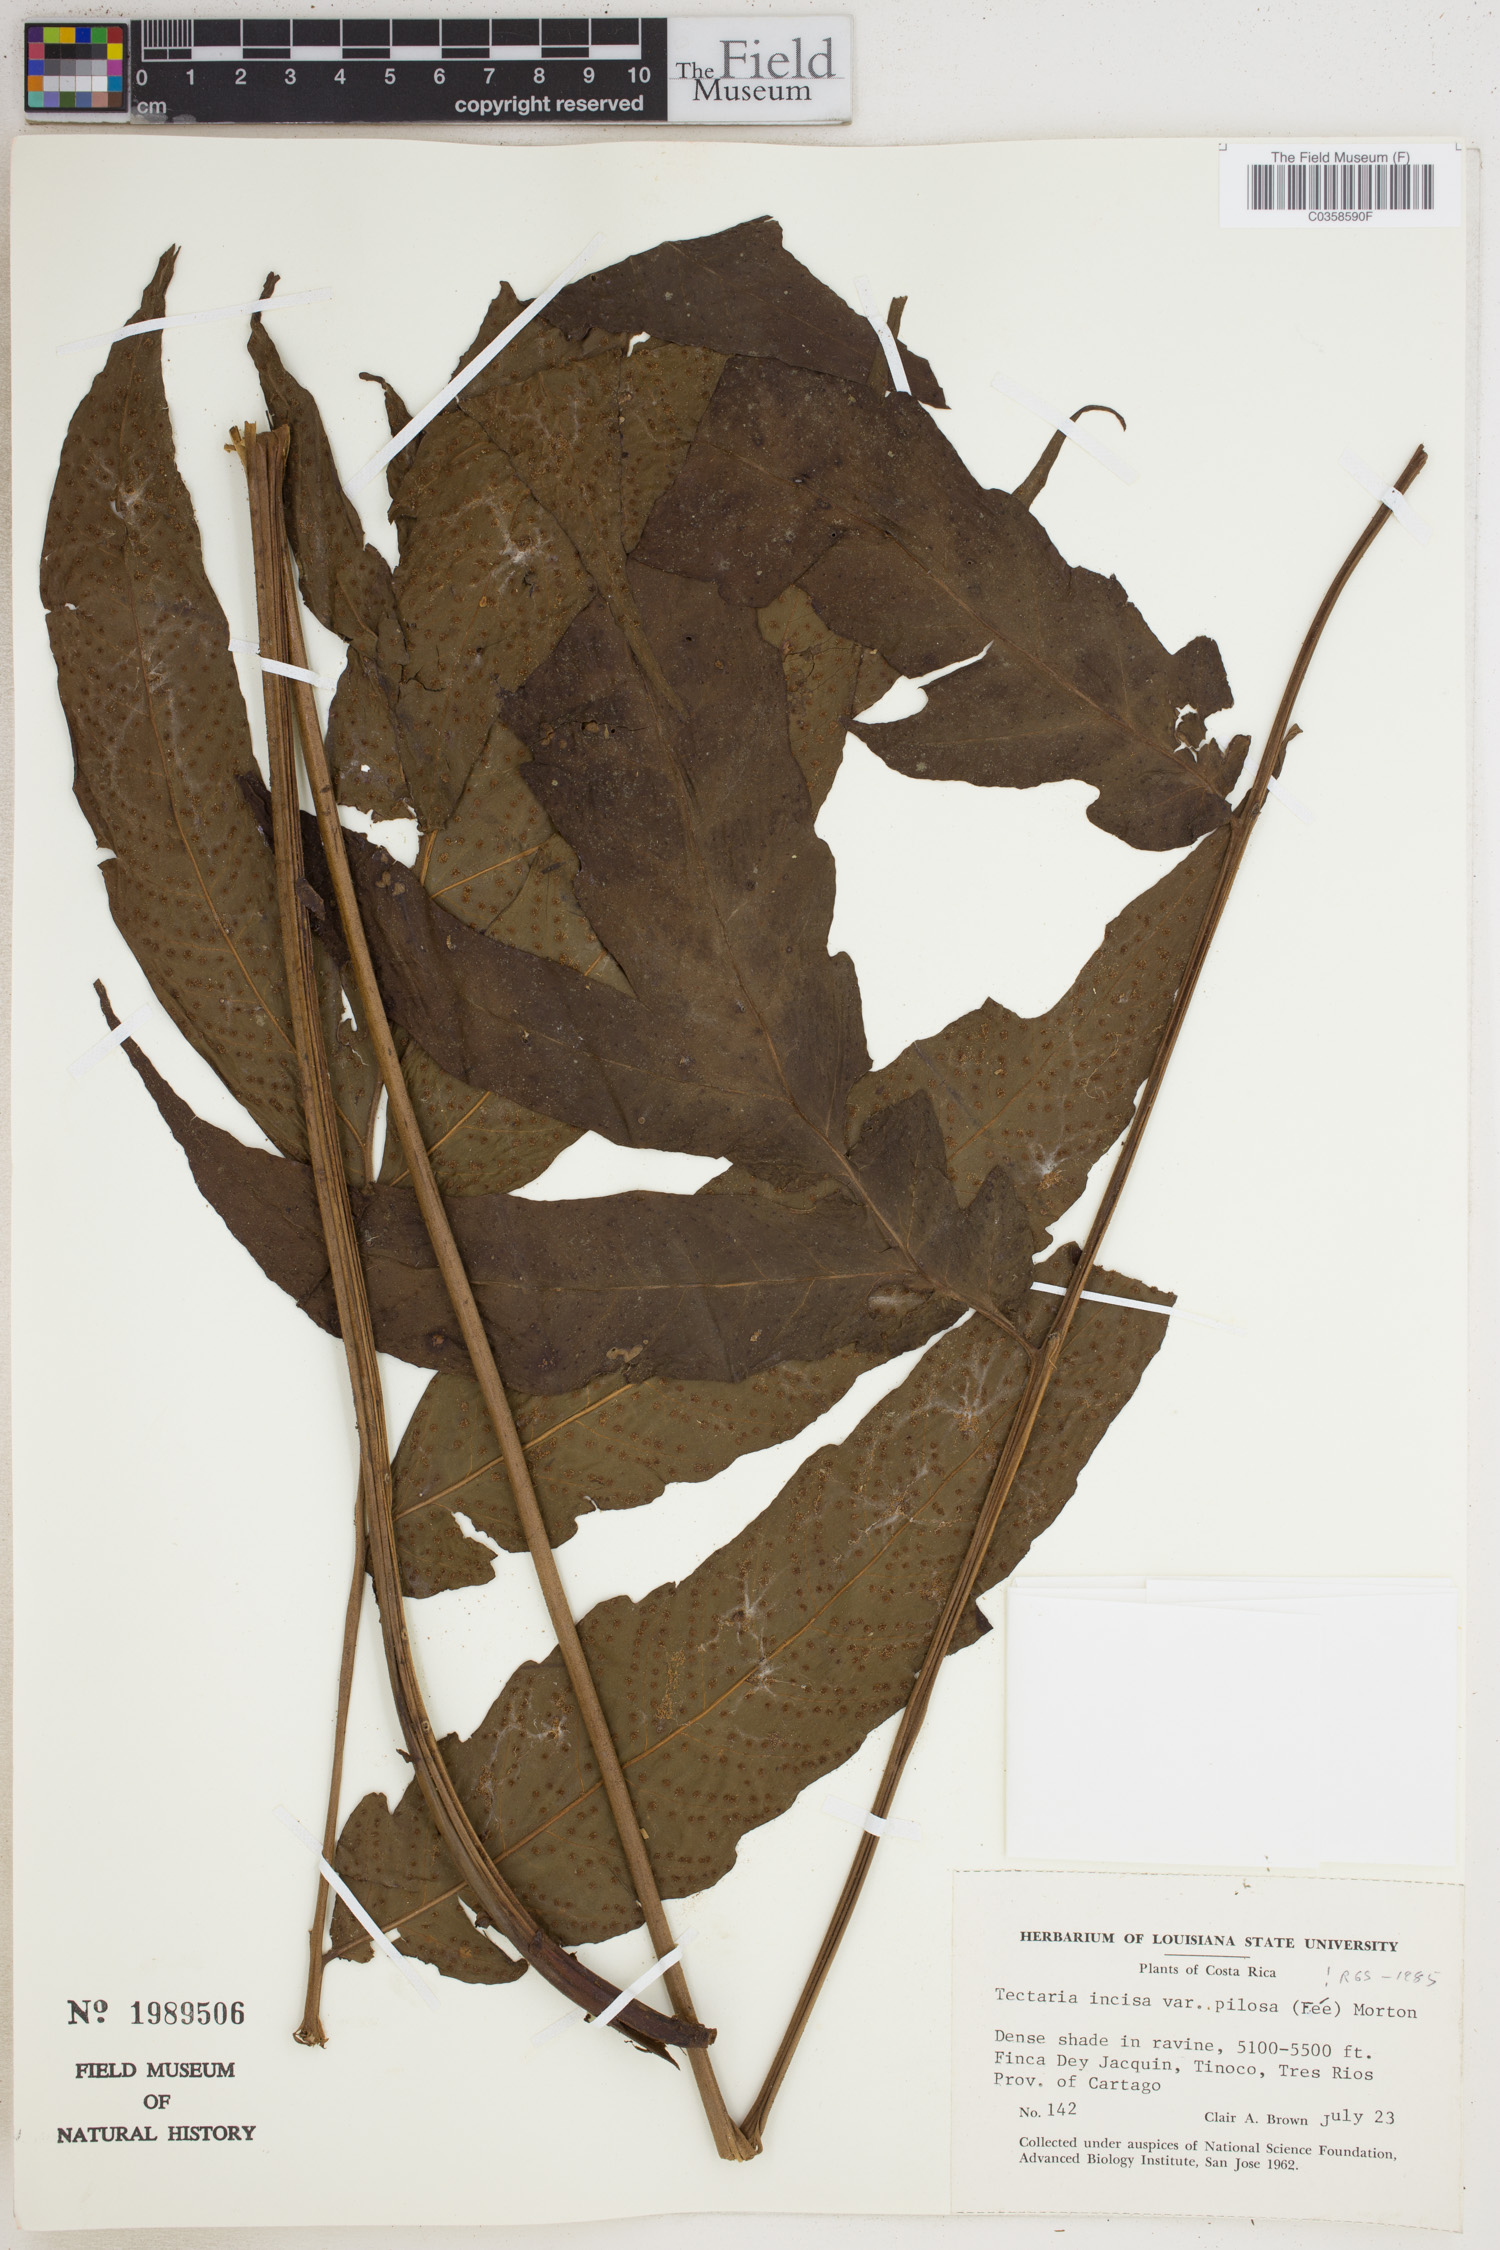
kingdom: Plantae
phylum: Tracheophyta
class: Polypodiopsida
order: Polypodiales
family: Tectariaceae
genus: Tectaria
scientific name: Tectaria incisa
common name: Incised halberd fern
